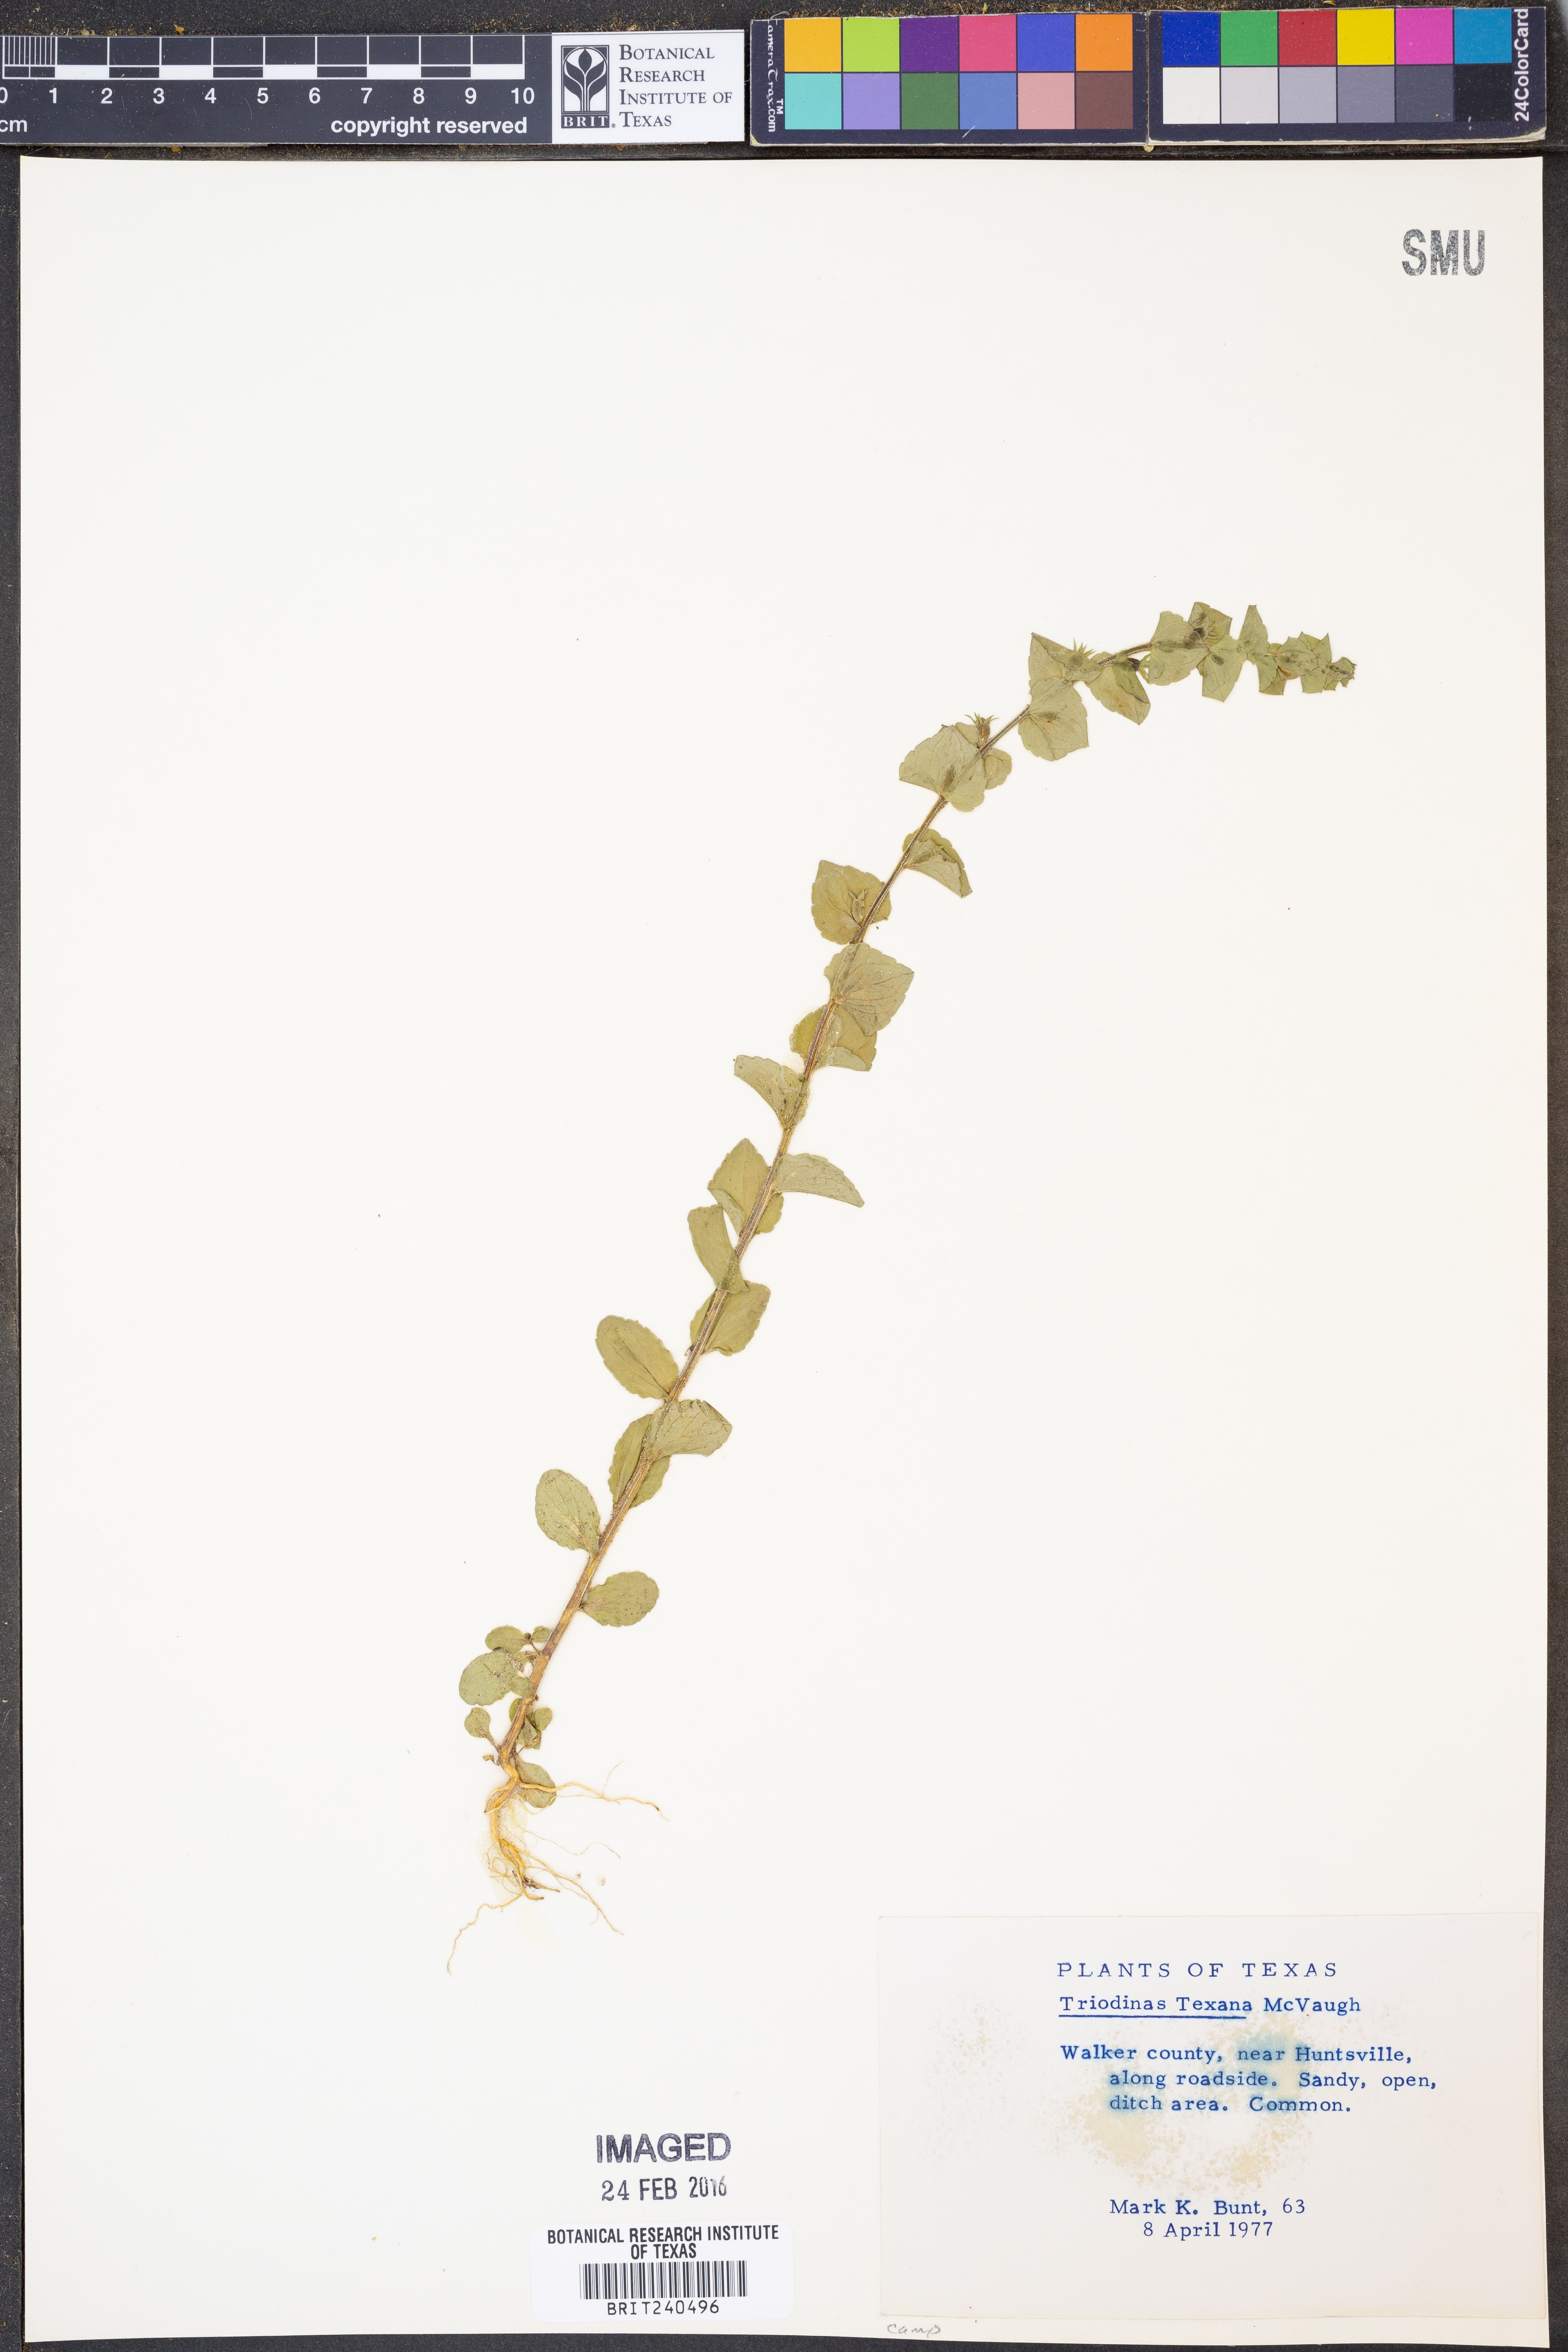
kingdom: Plantae
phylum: Tracheophyta
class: Magnoliopsida
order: Asterales
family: Campanulaceae
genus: Triodanis
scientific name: Triodanis texana
